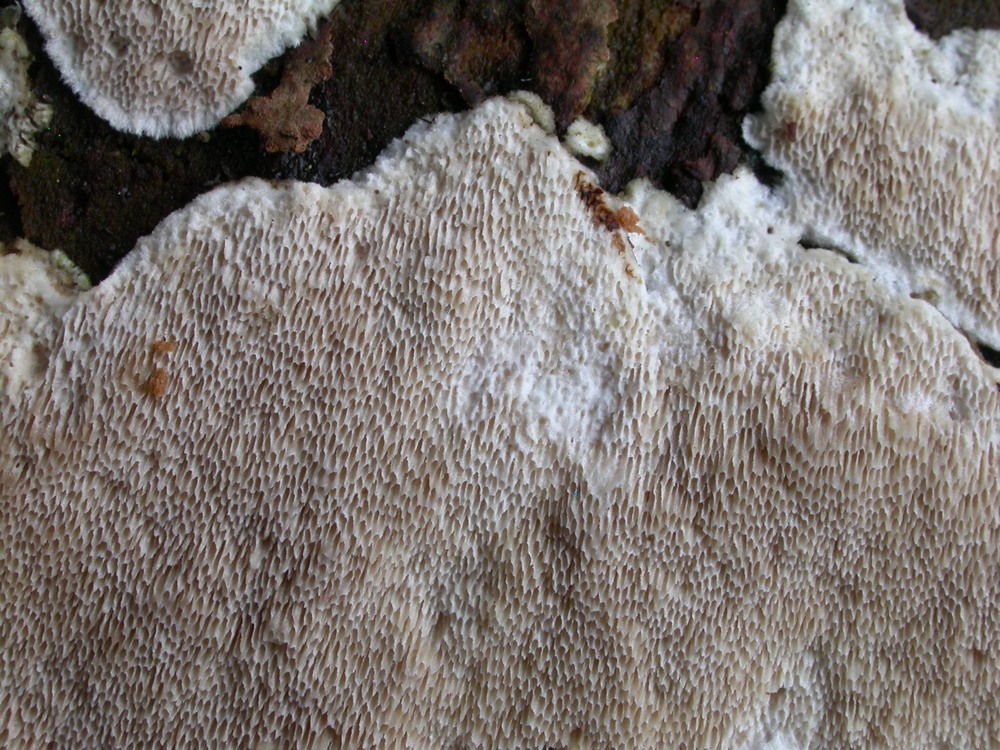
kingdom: Fungi
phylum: Basidiomycota
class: Agaricomycetes
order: Polyporales
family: Gelatoporiaceae
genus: Cinereomyces
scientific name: Cinereomyces lindbladii
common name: almindelig gråporesvamp
